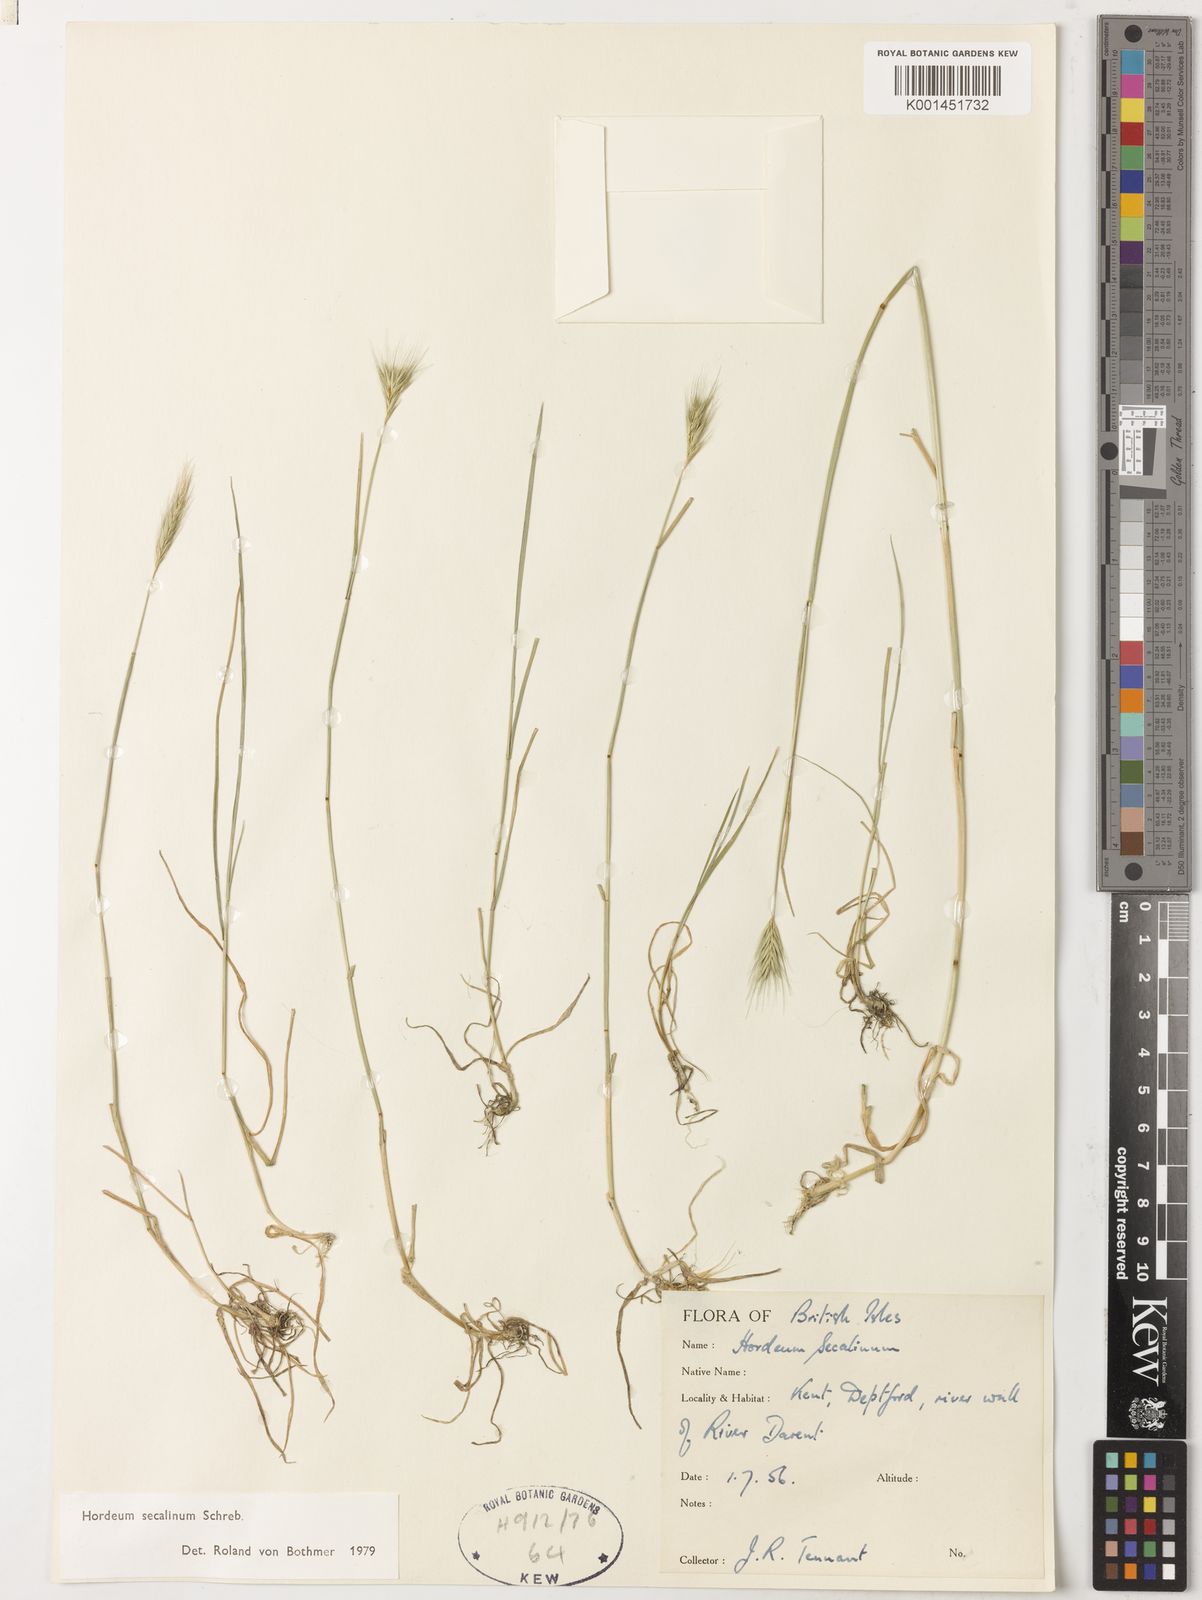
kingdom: Plantae
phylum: Tracheophyta
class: Liliopsida
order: Poales
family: Poaceae
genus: Hordeum
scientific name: Hordeum secalinum
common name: Meadow barley
